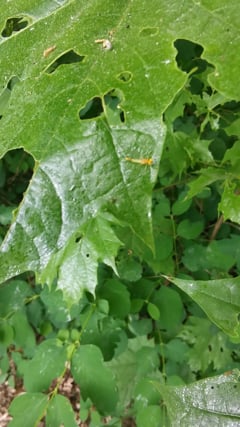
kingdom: Animalia
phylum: Arthropoda
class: Insecta
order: Ephemeroptera
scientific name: Ephemeroptera
